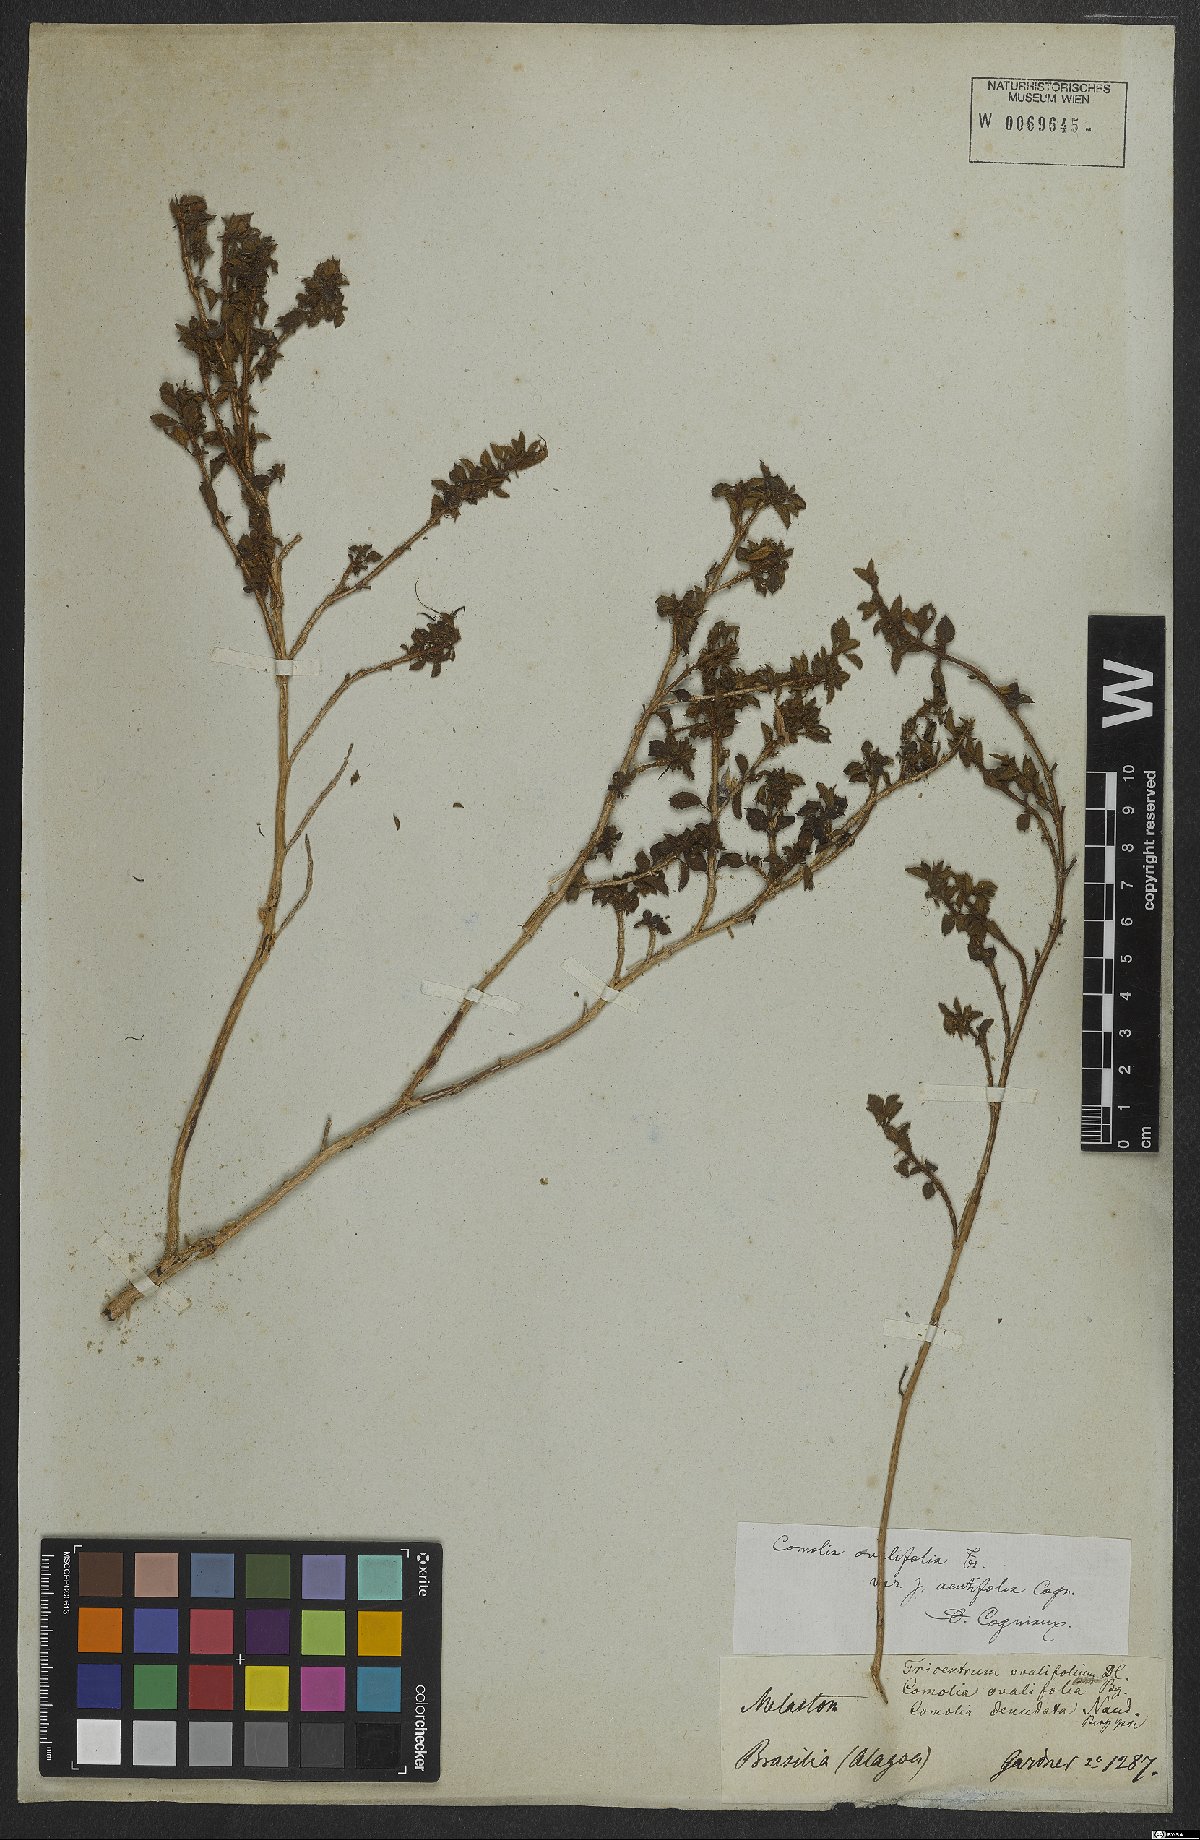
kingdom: Plantae
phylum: Tracheophyta
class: Magnoliopsida
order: Myrtales
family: Melastomataceae
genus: Comolia
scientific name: Comolia ovalifolia
